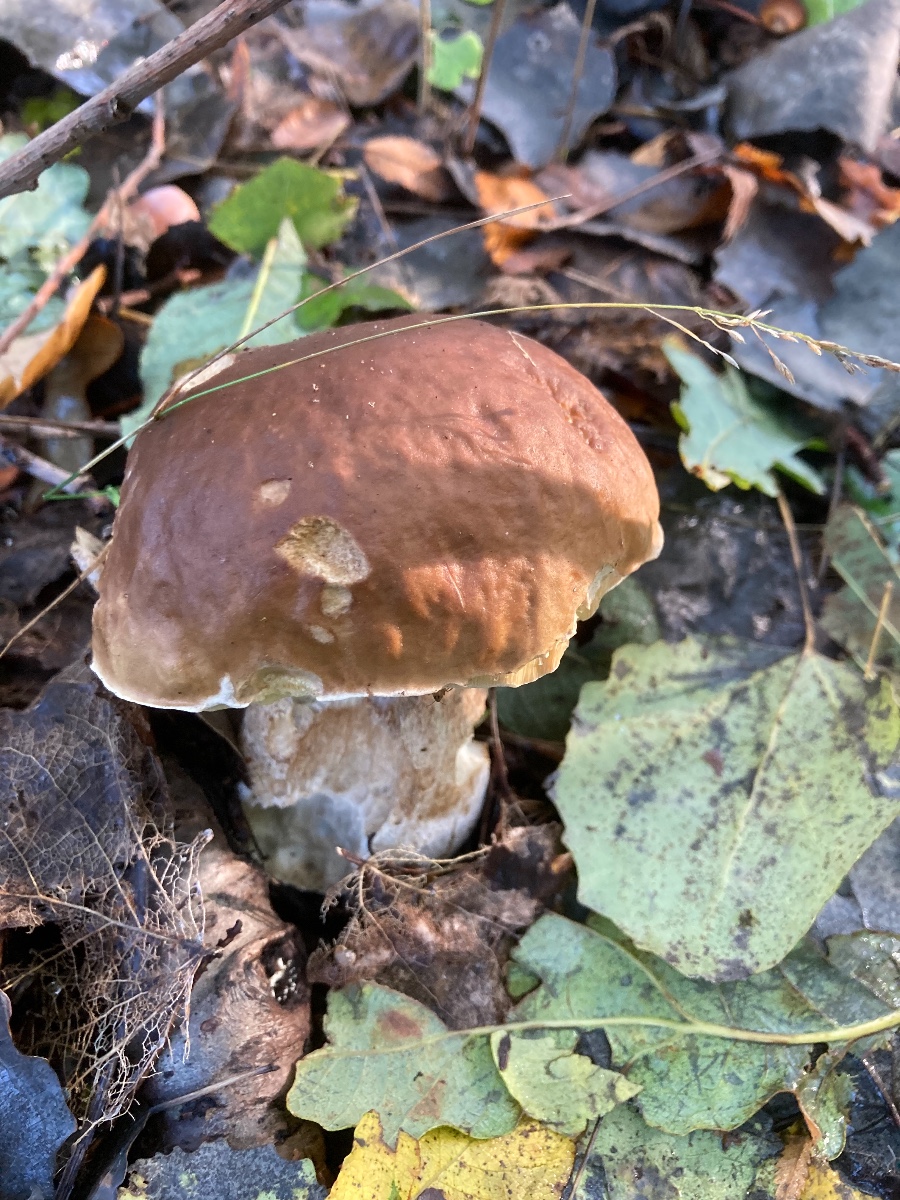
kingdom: Fungi
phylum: Basidiomycota
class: Agaricomycetes
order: Boletales
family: Boletaceae
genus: Boletus
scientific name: Boletus edulis
